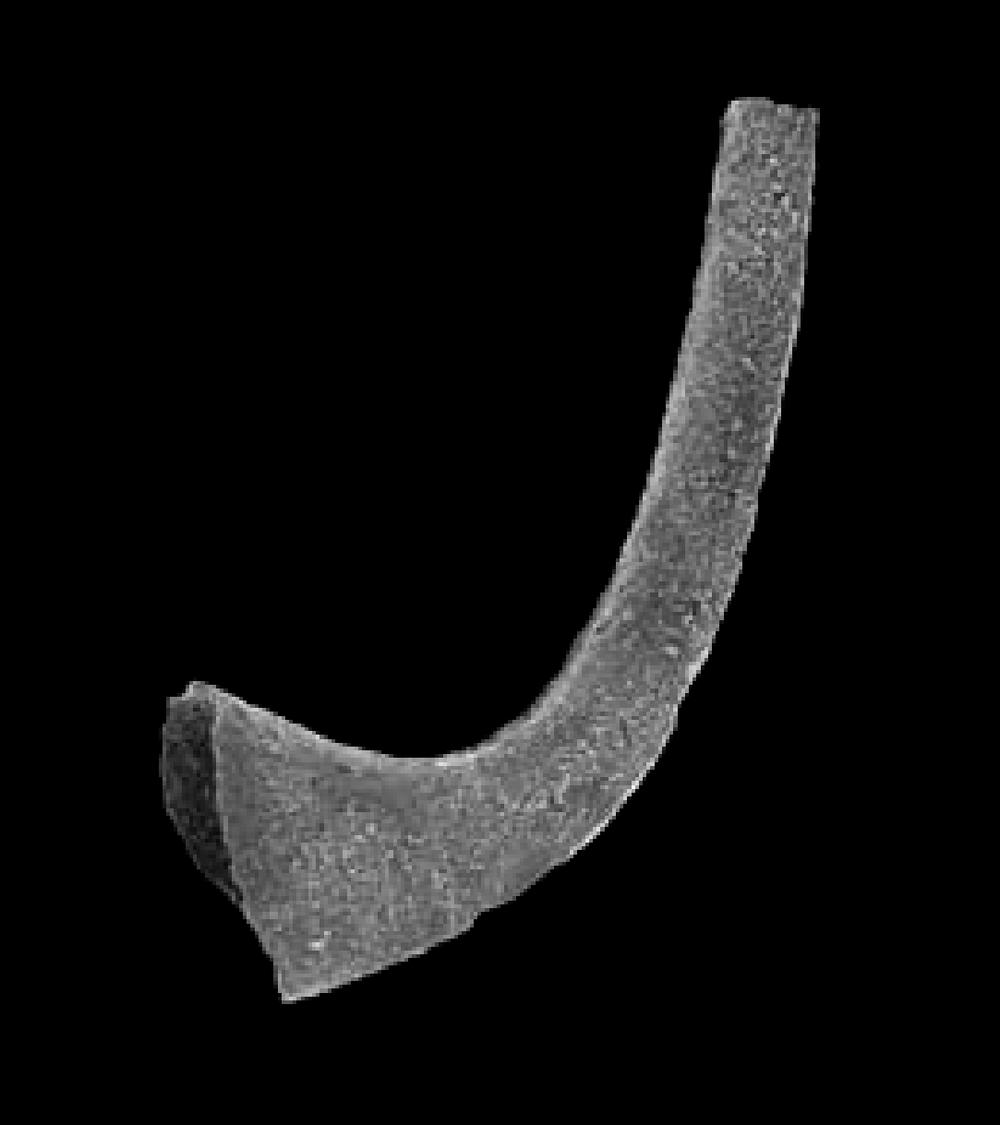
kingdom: Animalia
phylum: Chordata
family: Protopanderodontidae
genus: Protopanderodus
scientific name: Protopanderodus Acontiodus rectus
